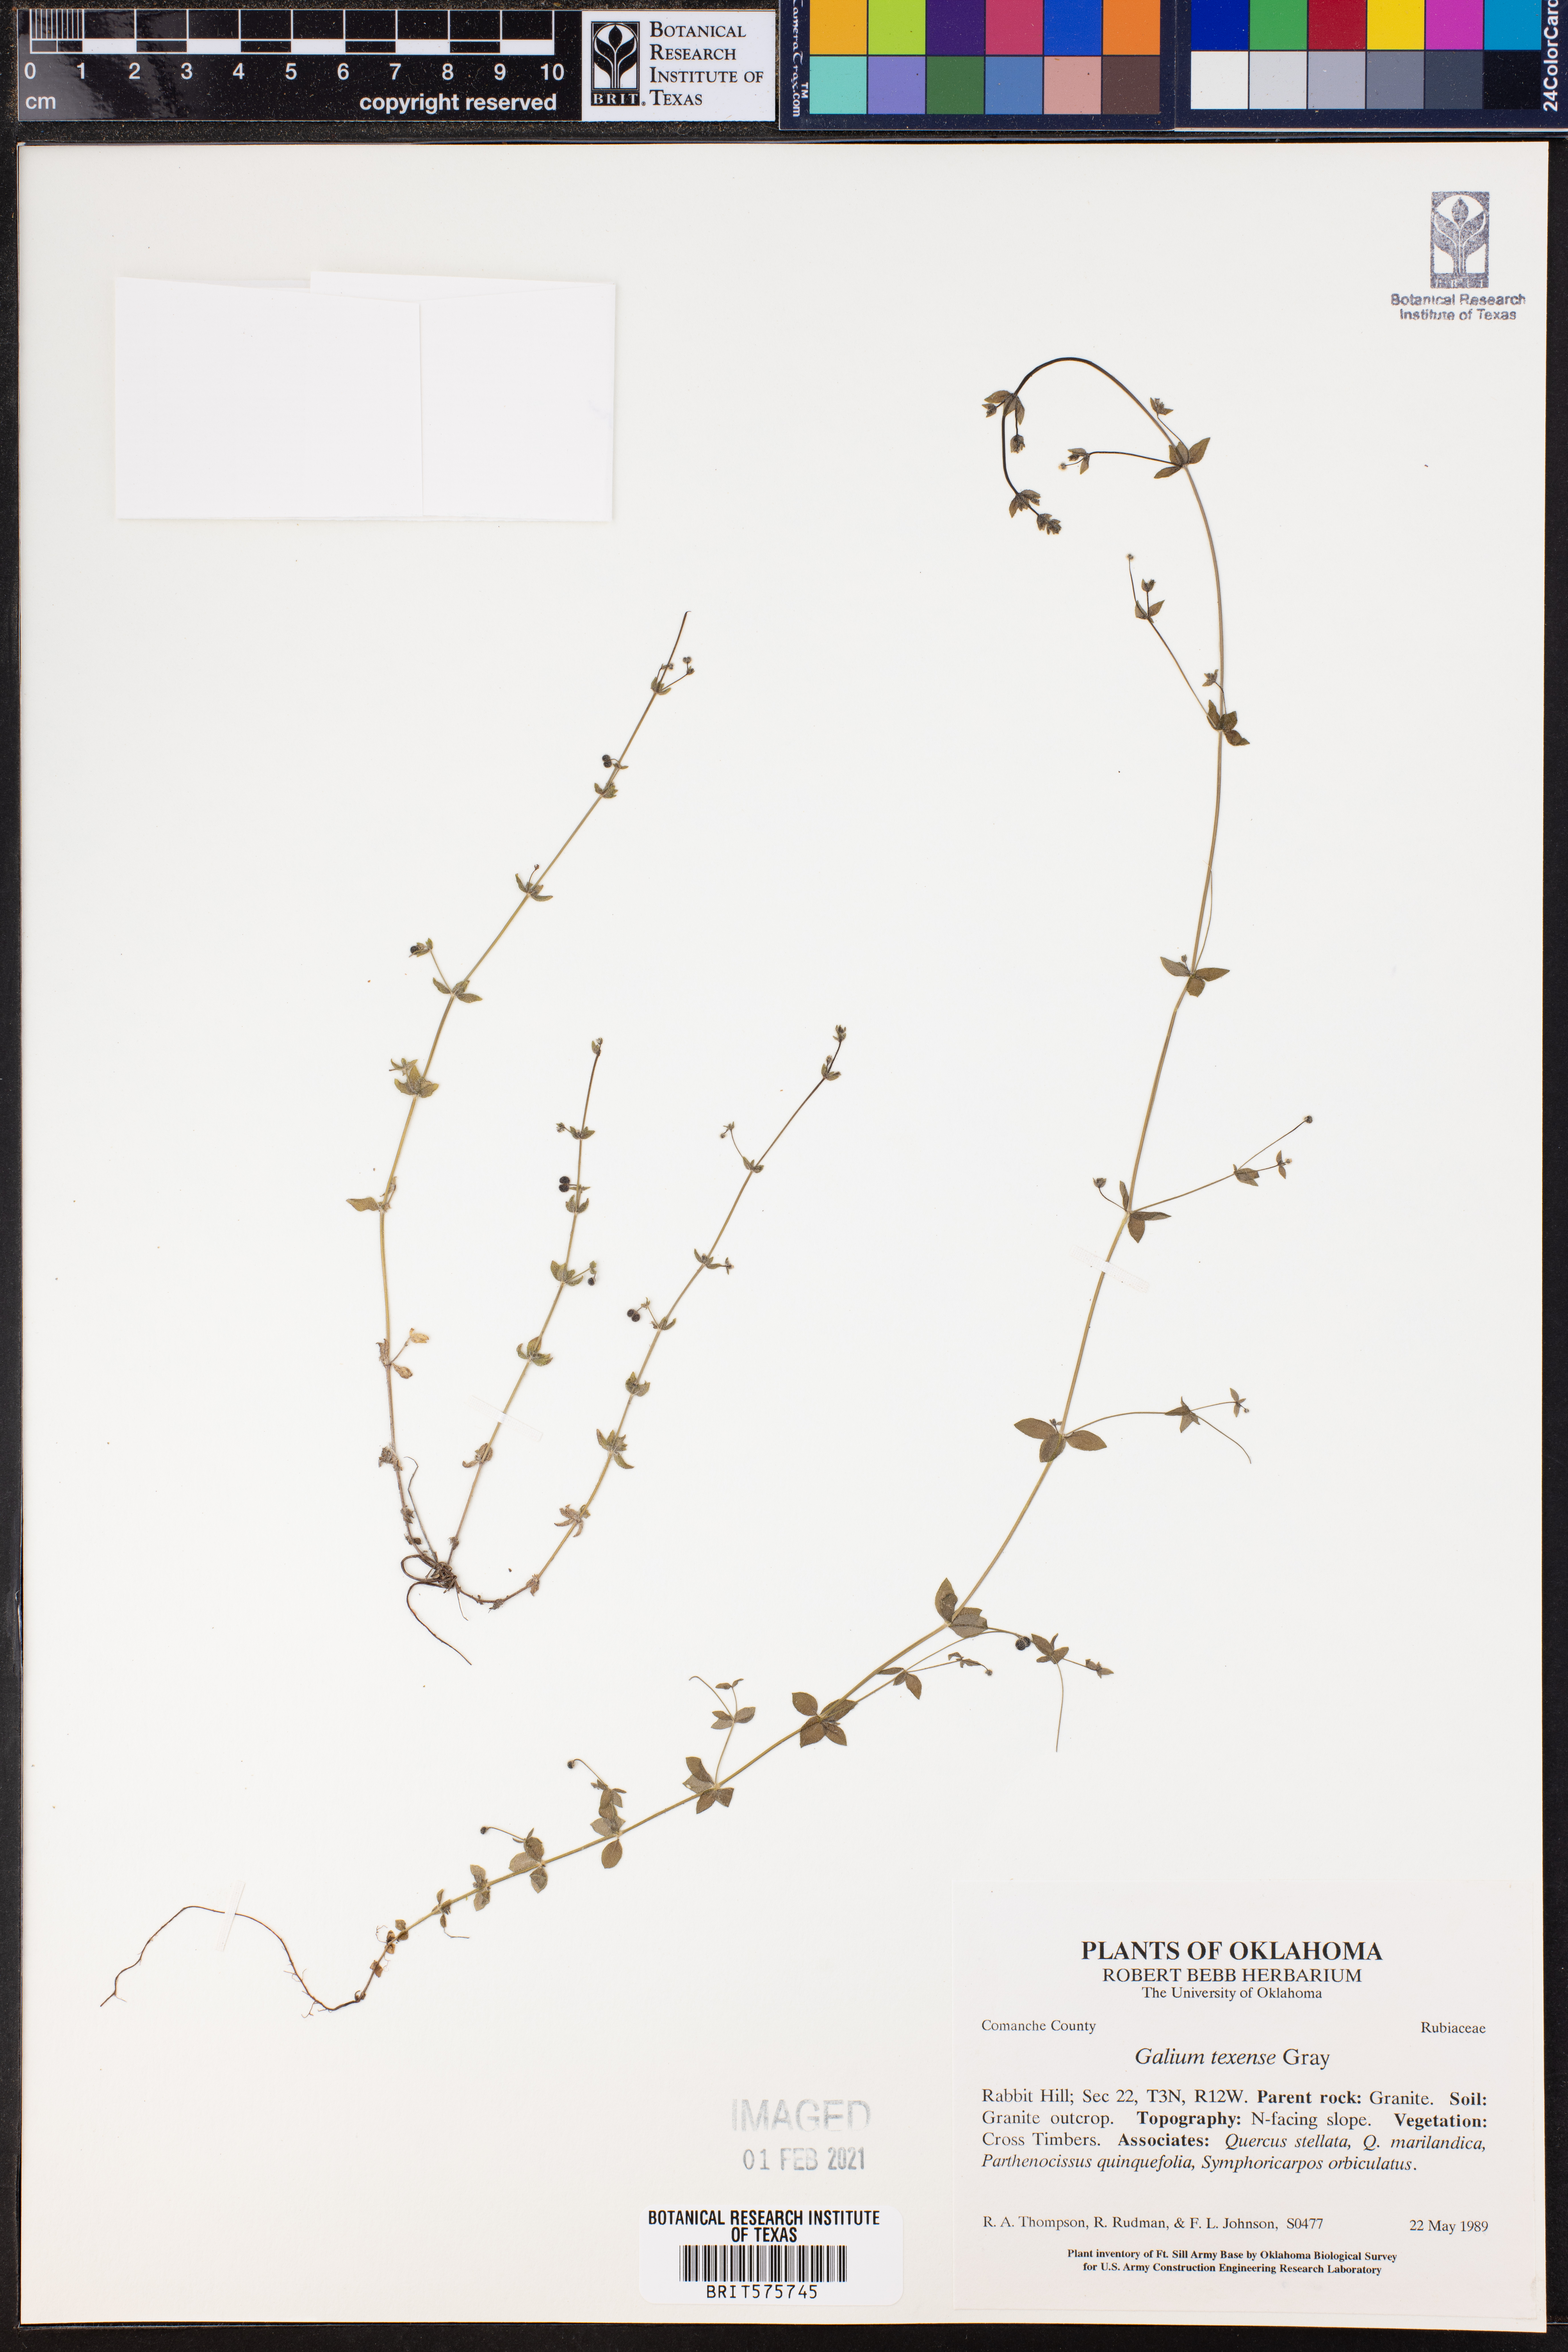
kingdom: Plantae
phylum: Tracheophyta
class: Magnoliopsida
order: Gentianales
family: Rubiaceae
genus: Galium
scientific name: Galium texense
